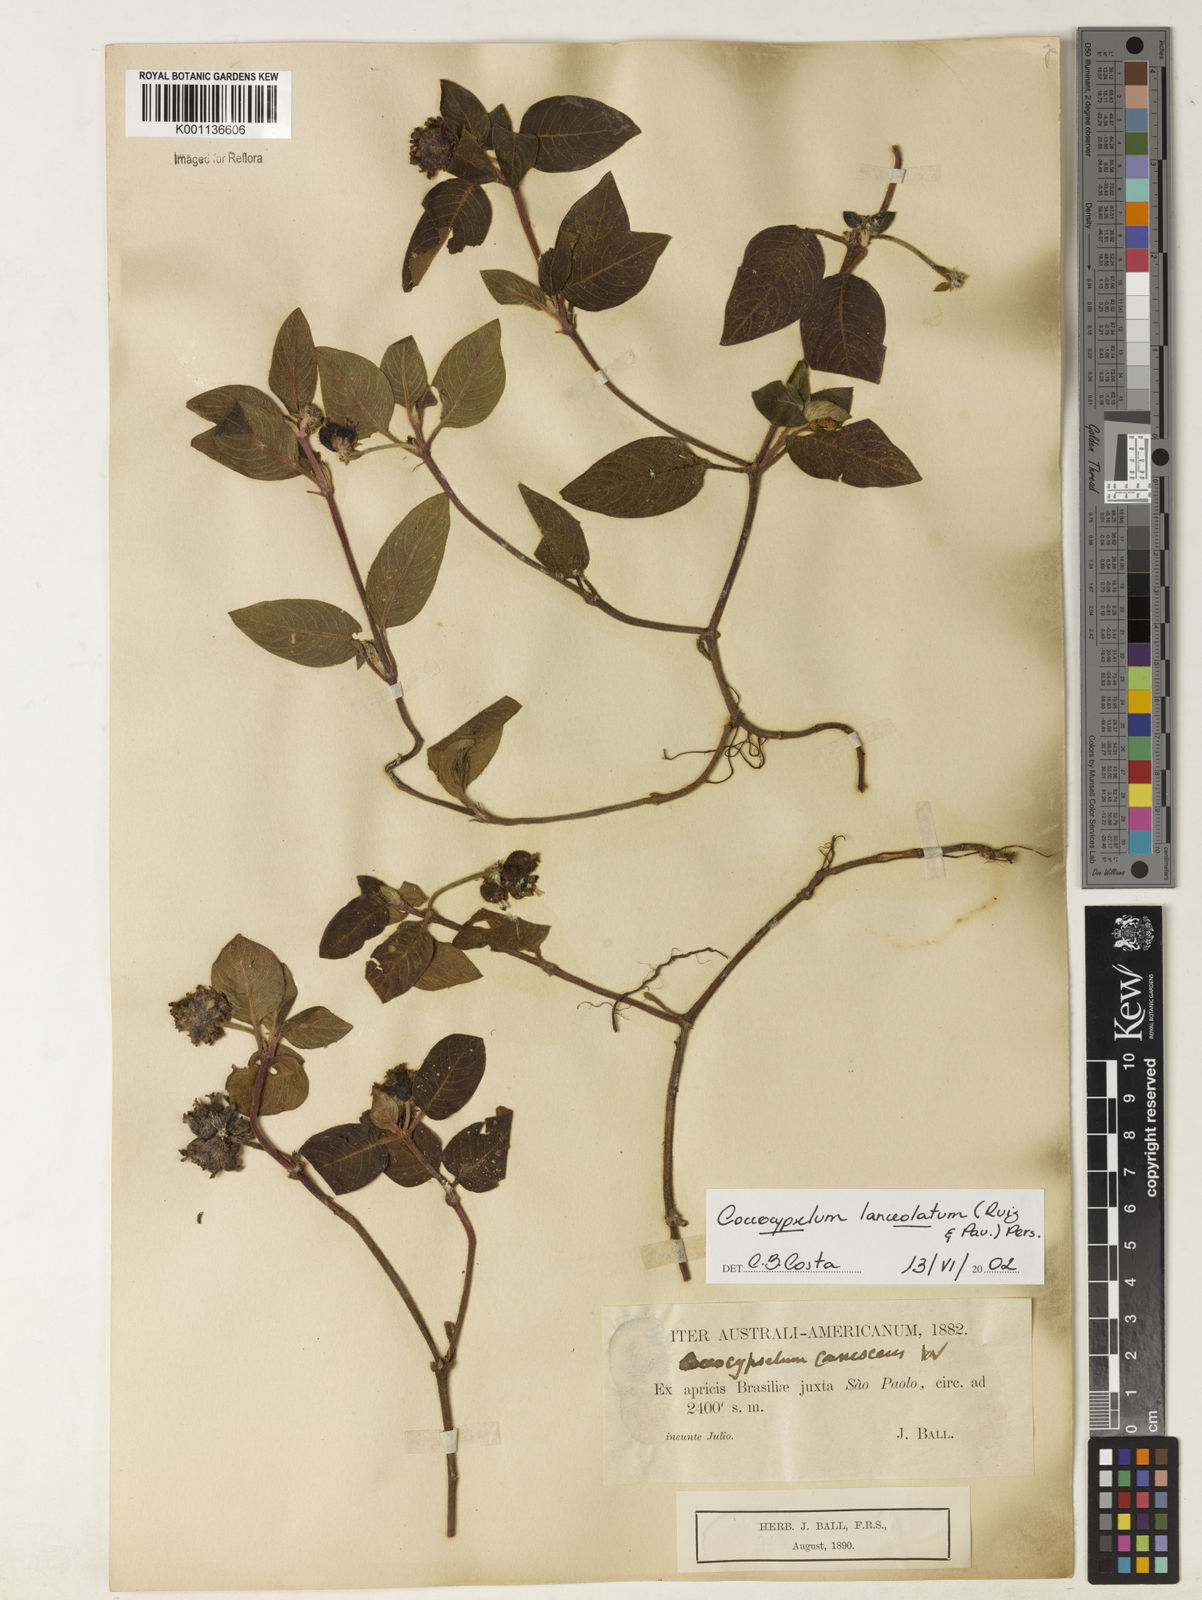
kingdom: Plantae
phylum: Tracheophyta
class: Magnoliopsida
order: Gentianales
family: Rubiaceae
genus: Coccocypselum
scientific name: Coccocypselum lanceolatum
